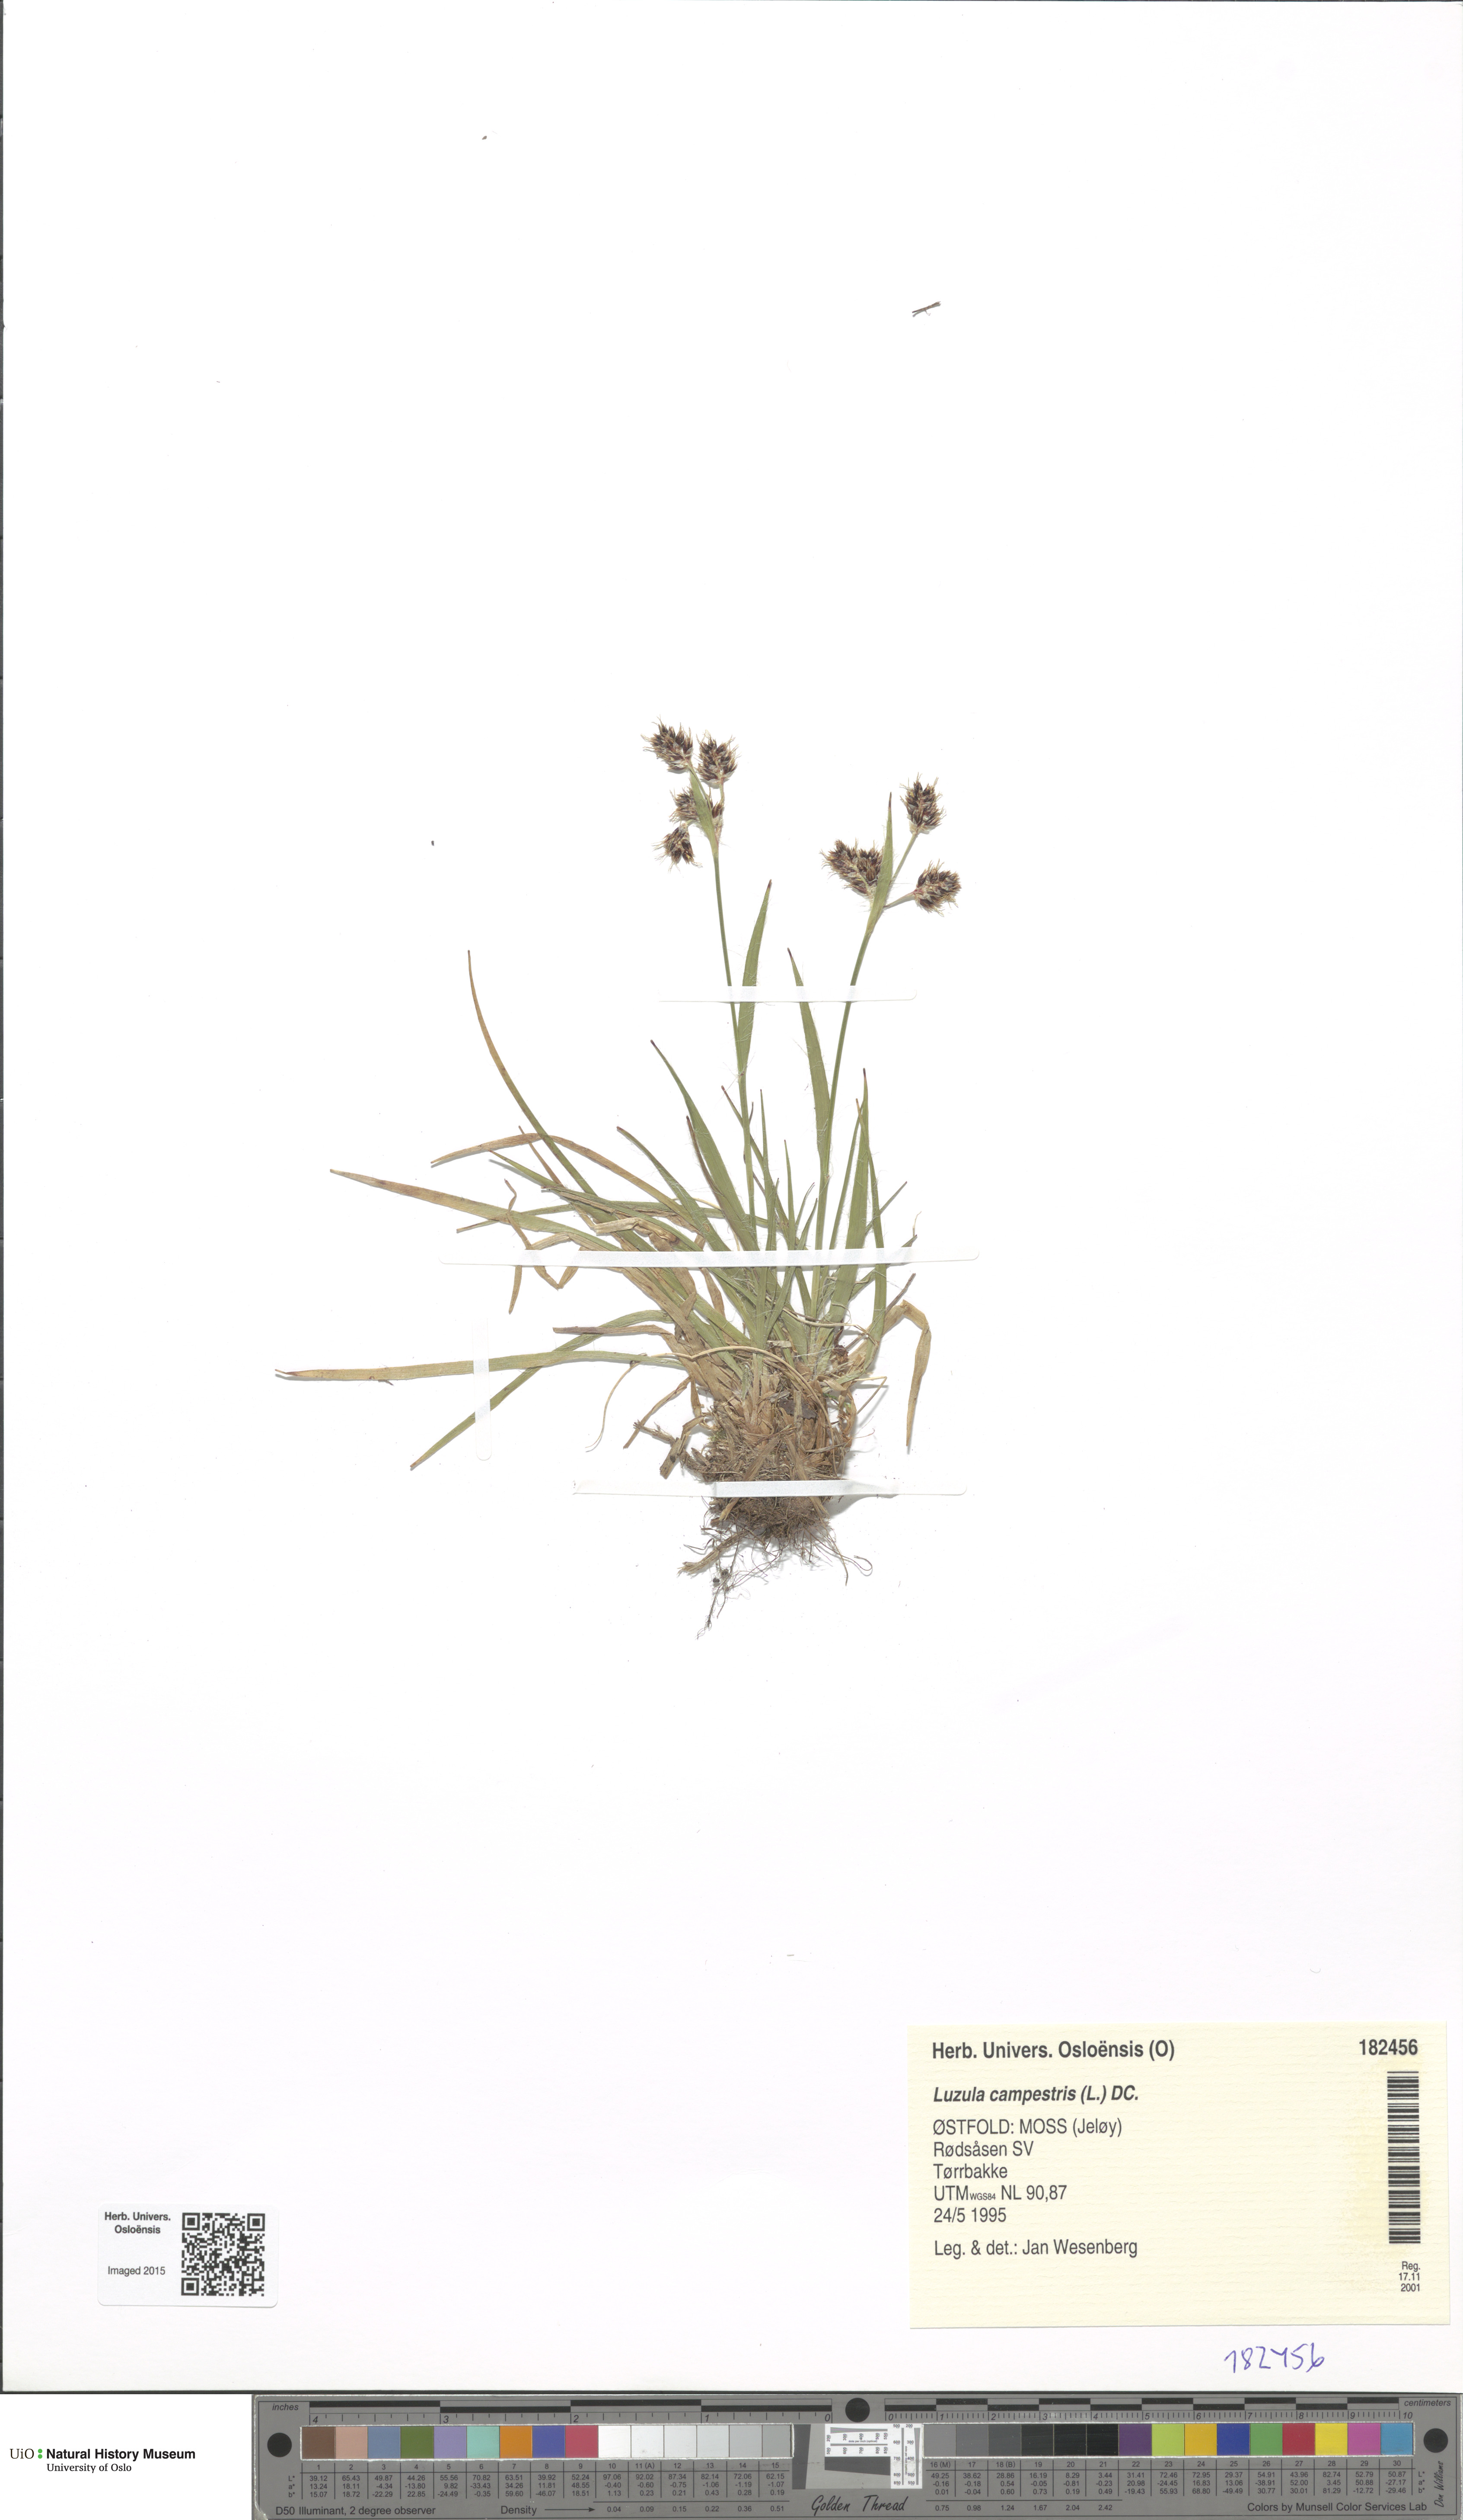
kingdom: Plantae
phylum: Tracheophyta
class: Liliopsida
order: Poales
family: Juncaceae
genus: Luzula
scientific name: Luzula campestris
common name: Field wood-rush
